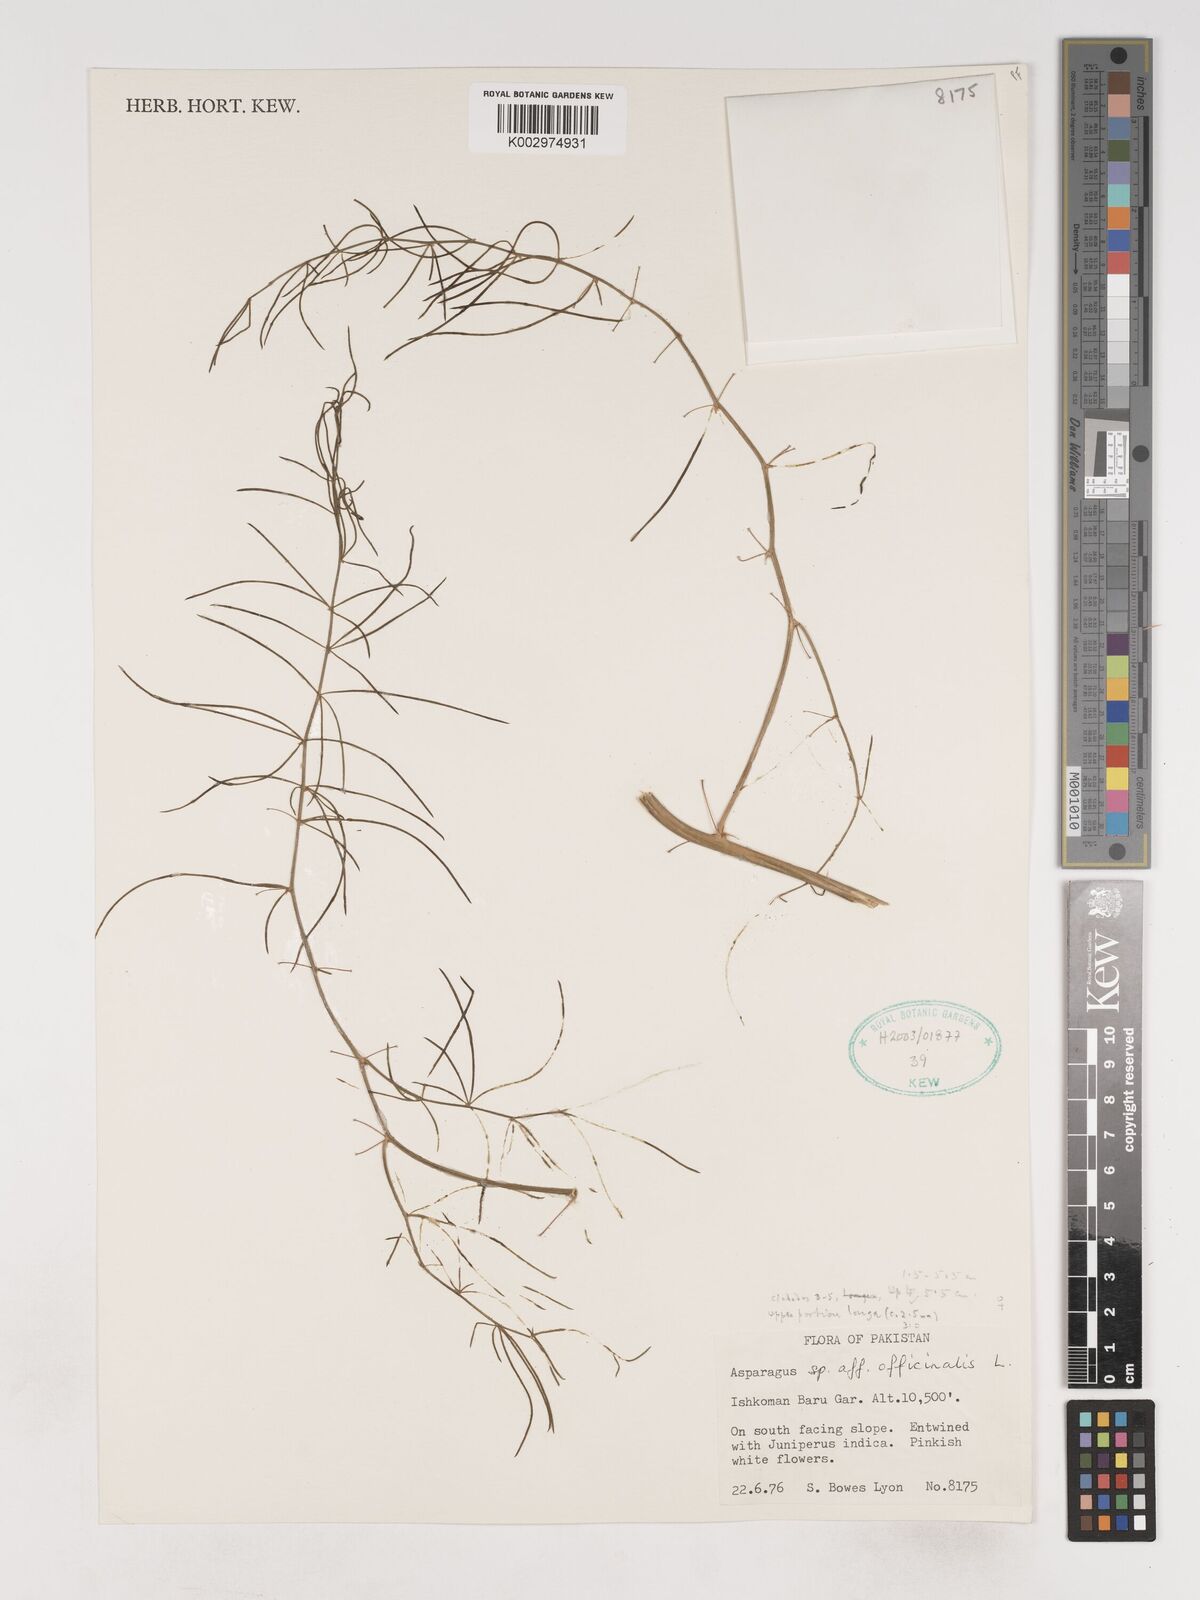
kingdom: Plantae
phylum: Tracheophyta
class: Liliopsida
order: Asparagales
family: Asparagaceae
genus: Asparagus
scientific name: Asparagus officinalis
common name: Garden asparagus
